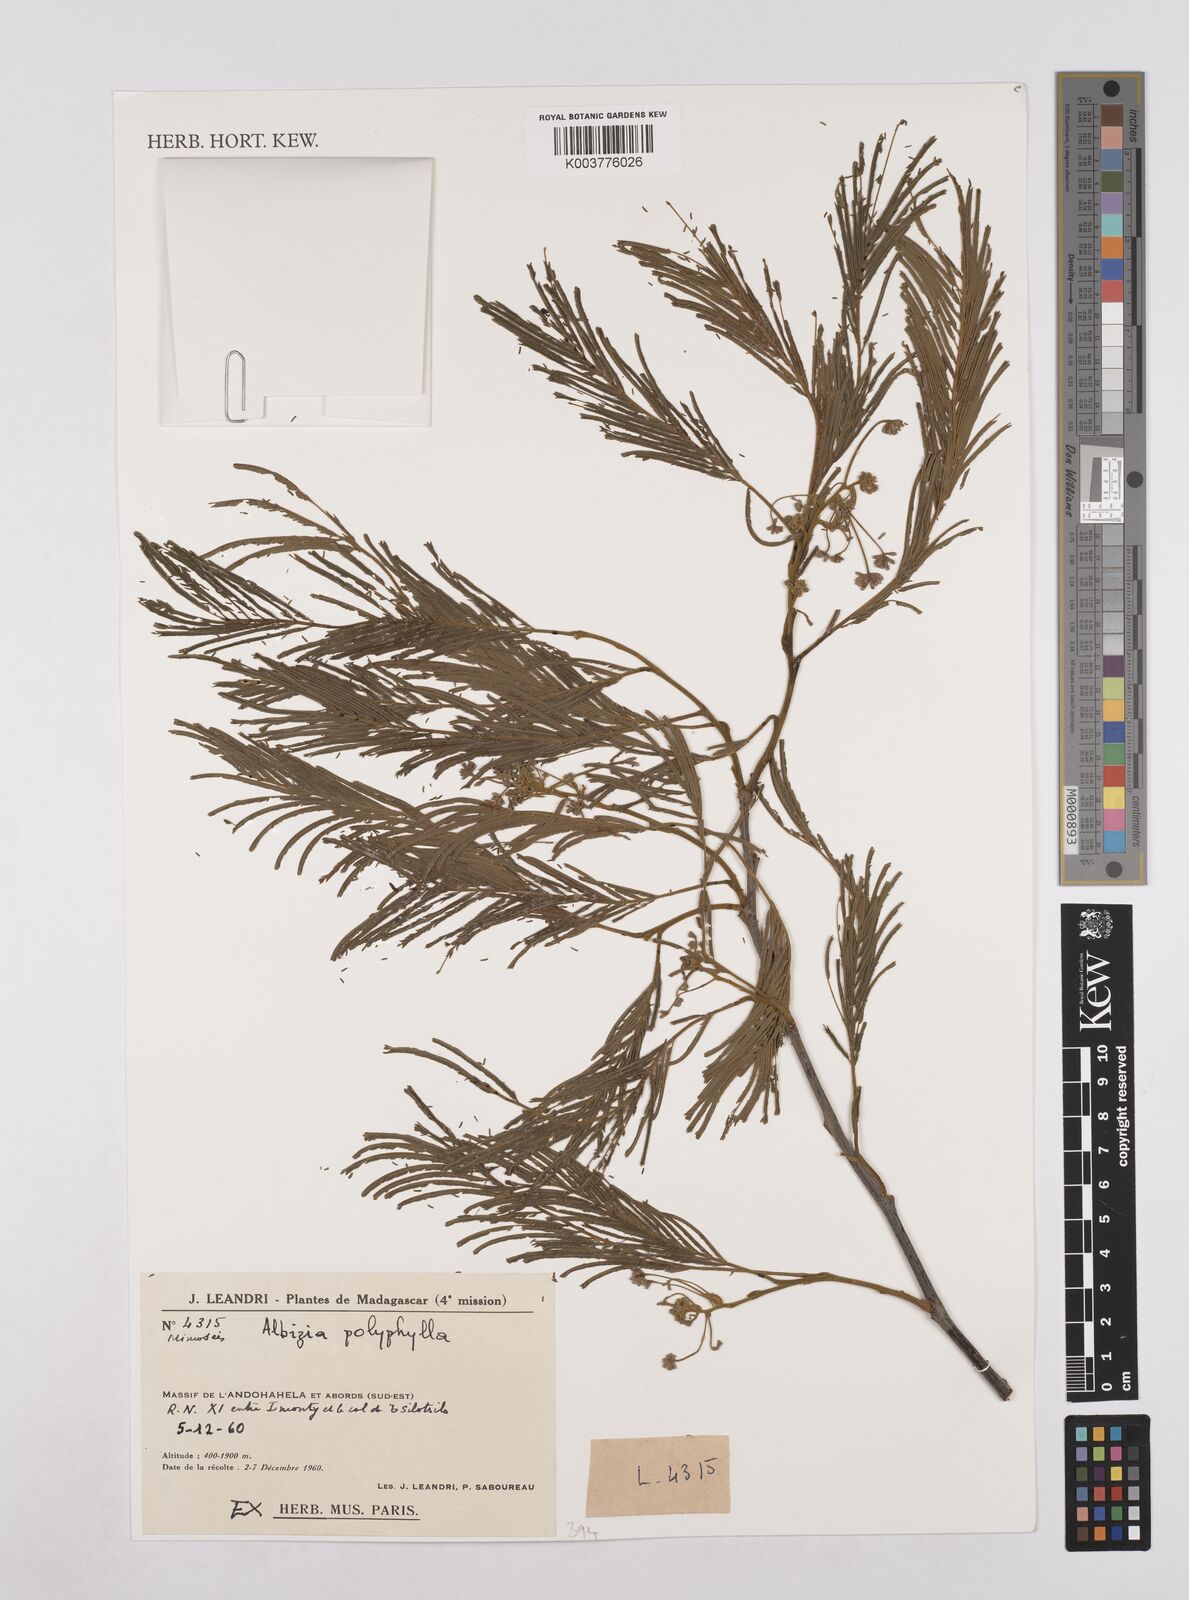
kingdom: Plantae
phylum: Tracheophyta
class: Magnoliopsida
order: Fabales
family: Fabaceae
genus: Albizia
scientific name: Albizia polyphylla
